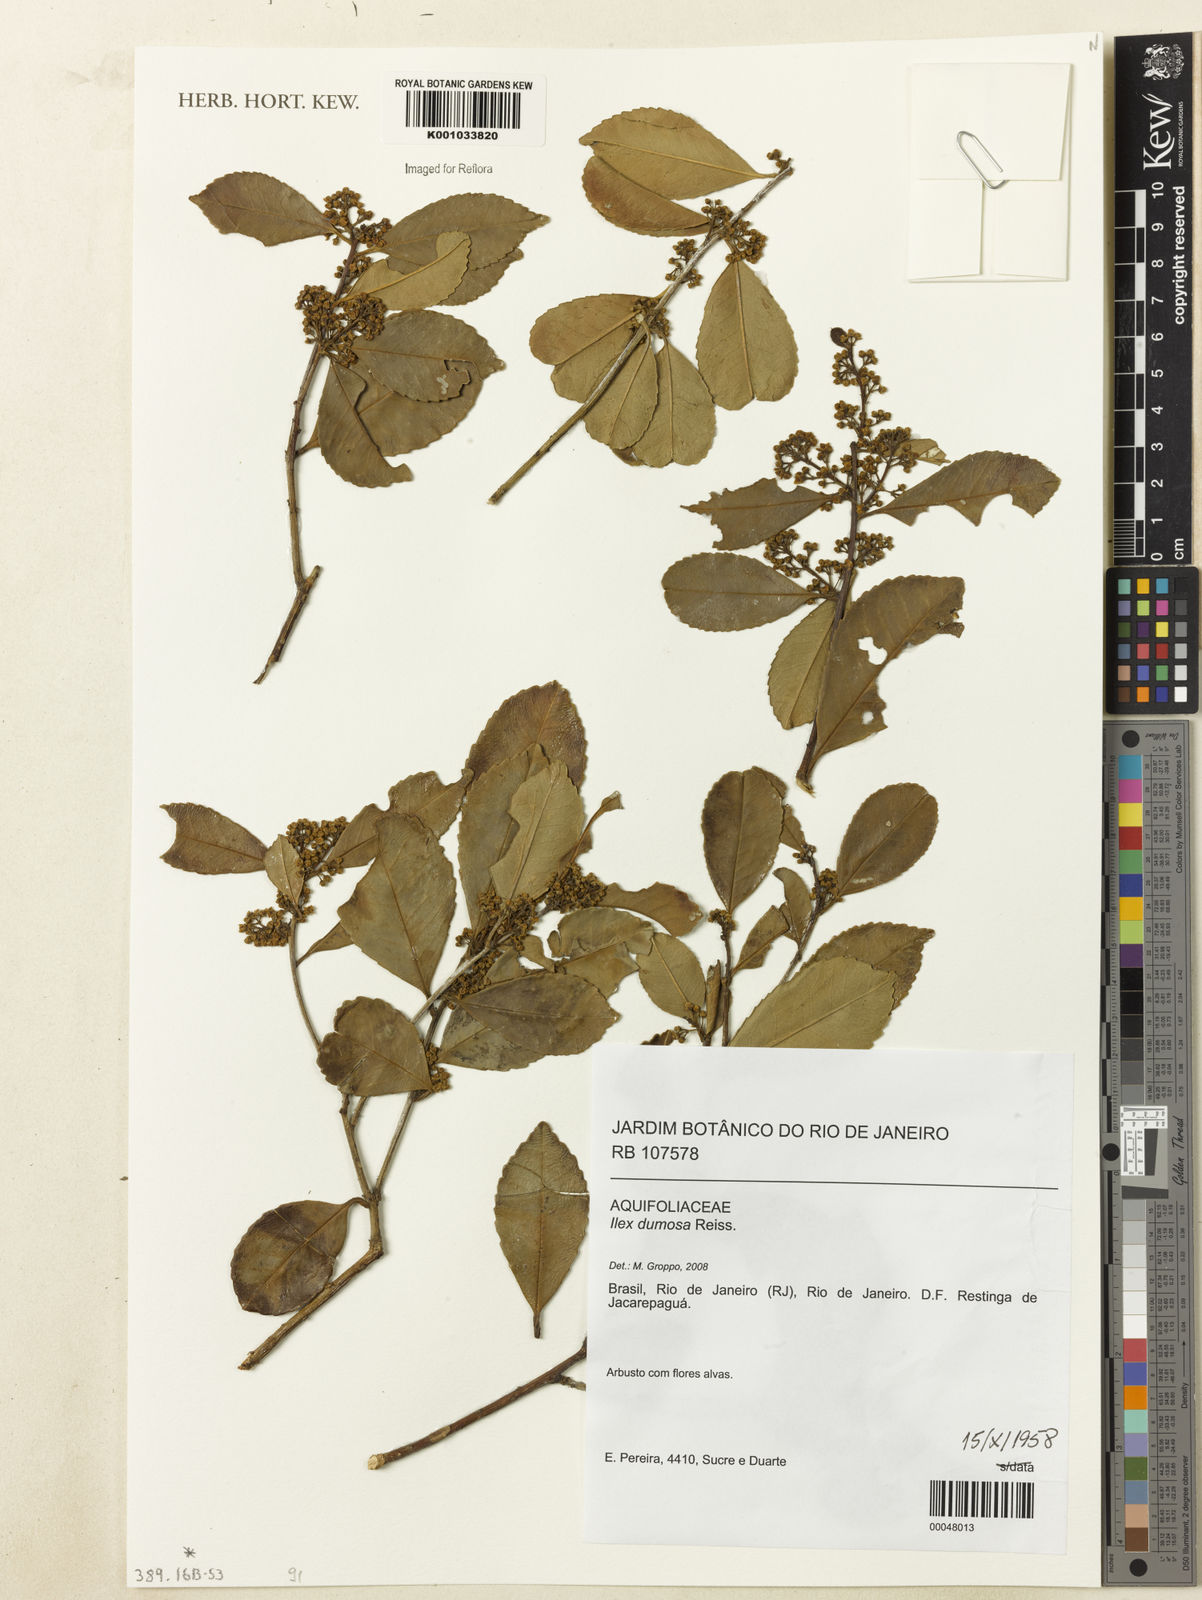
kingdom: Plantae
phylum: Tracheophyta
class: Magnoliopsida
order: Aquifoliales
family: Aquifoliaceae
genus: Ilex
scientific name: Ilex dumosa
